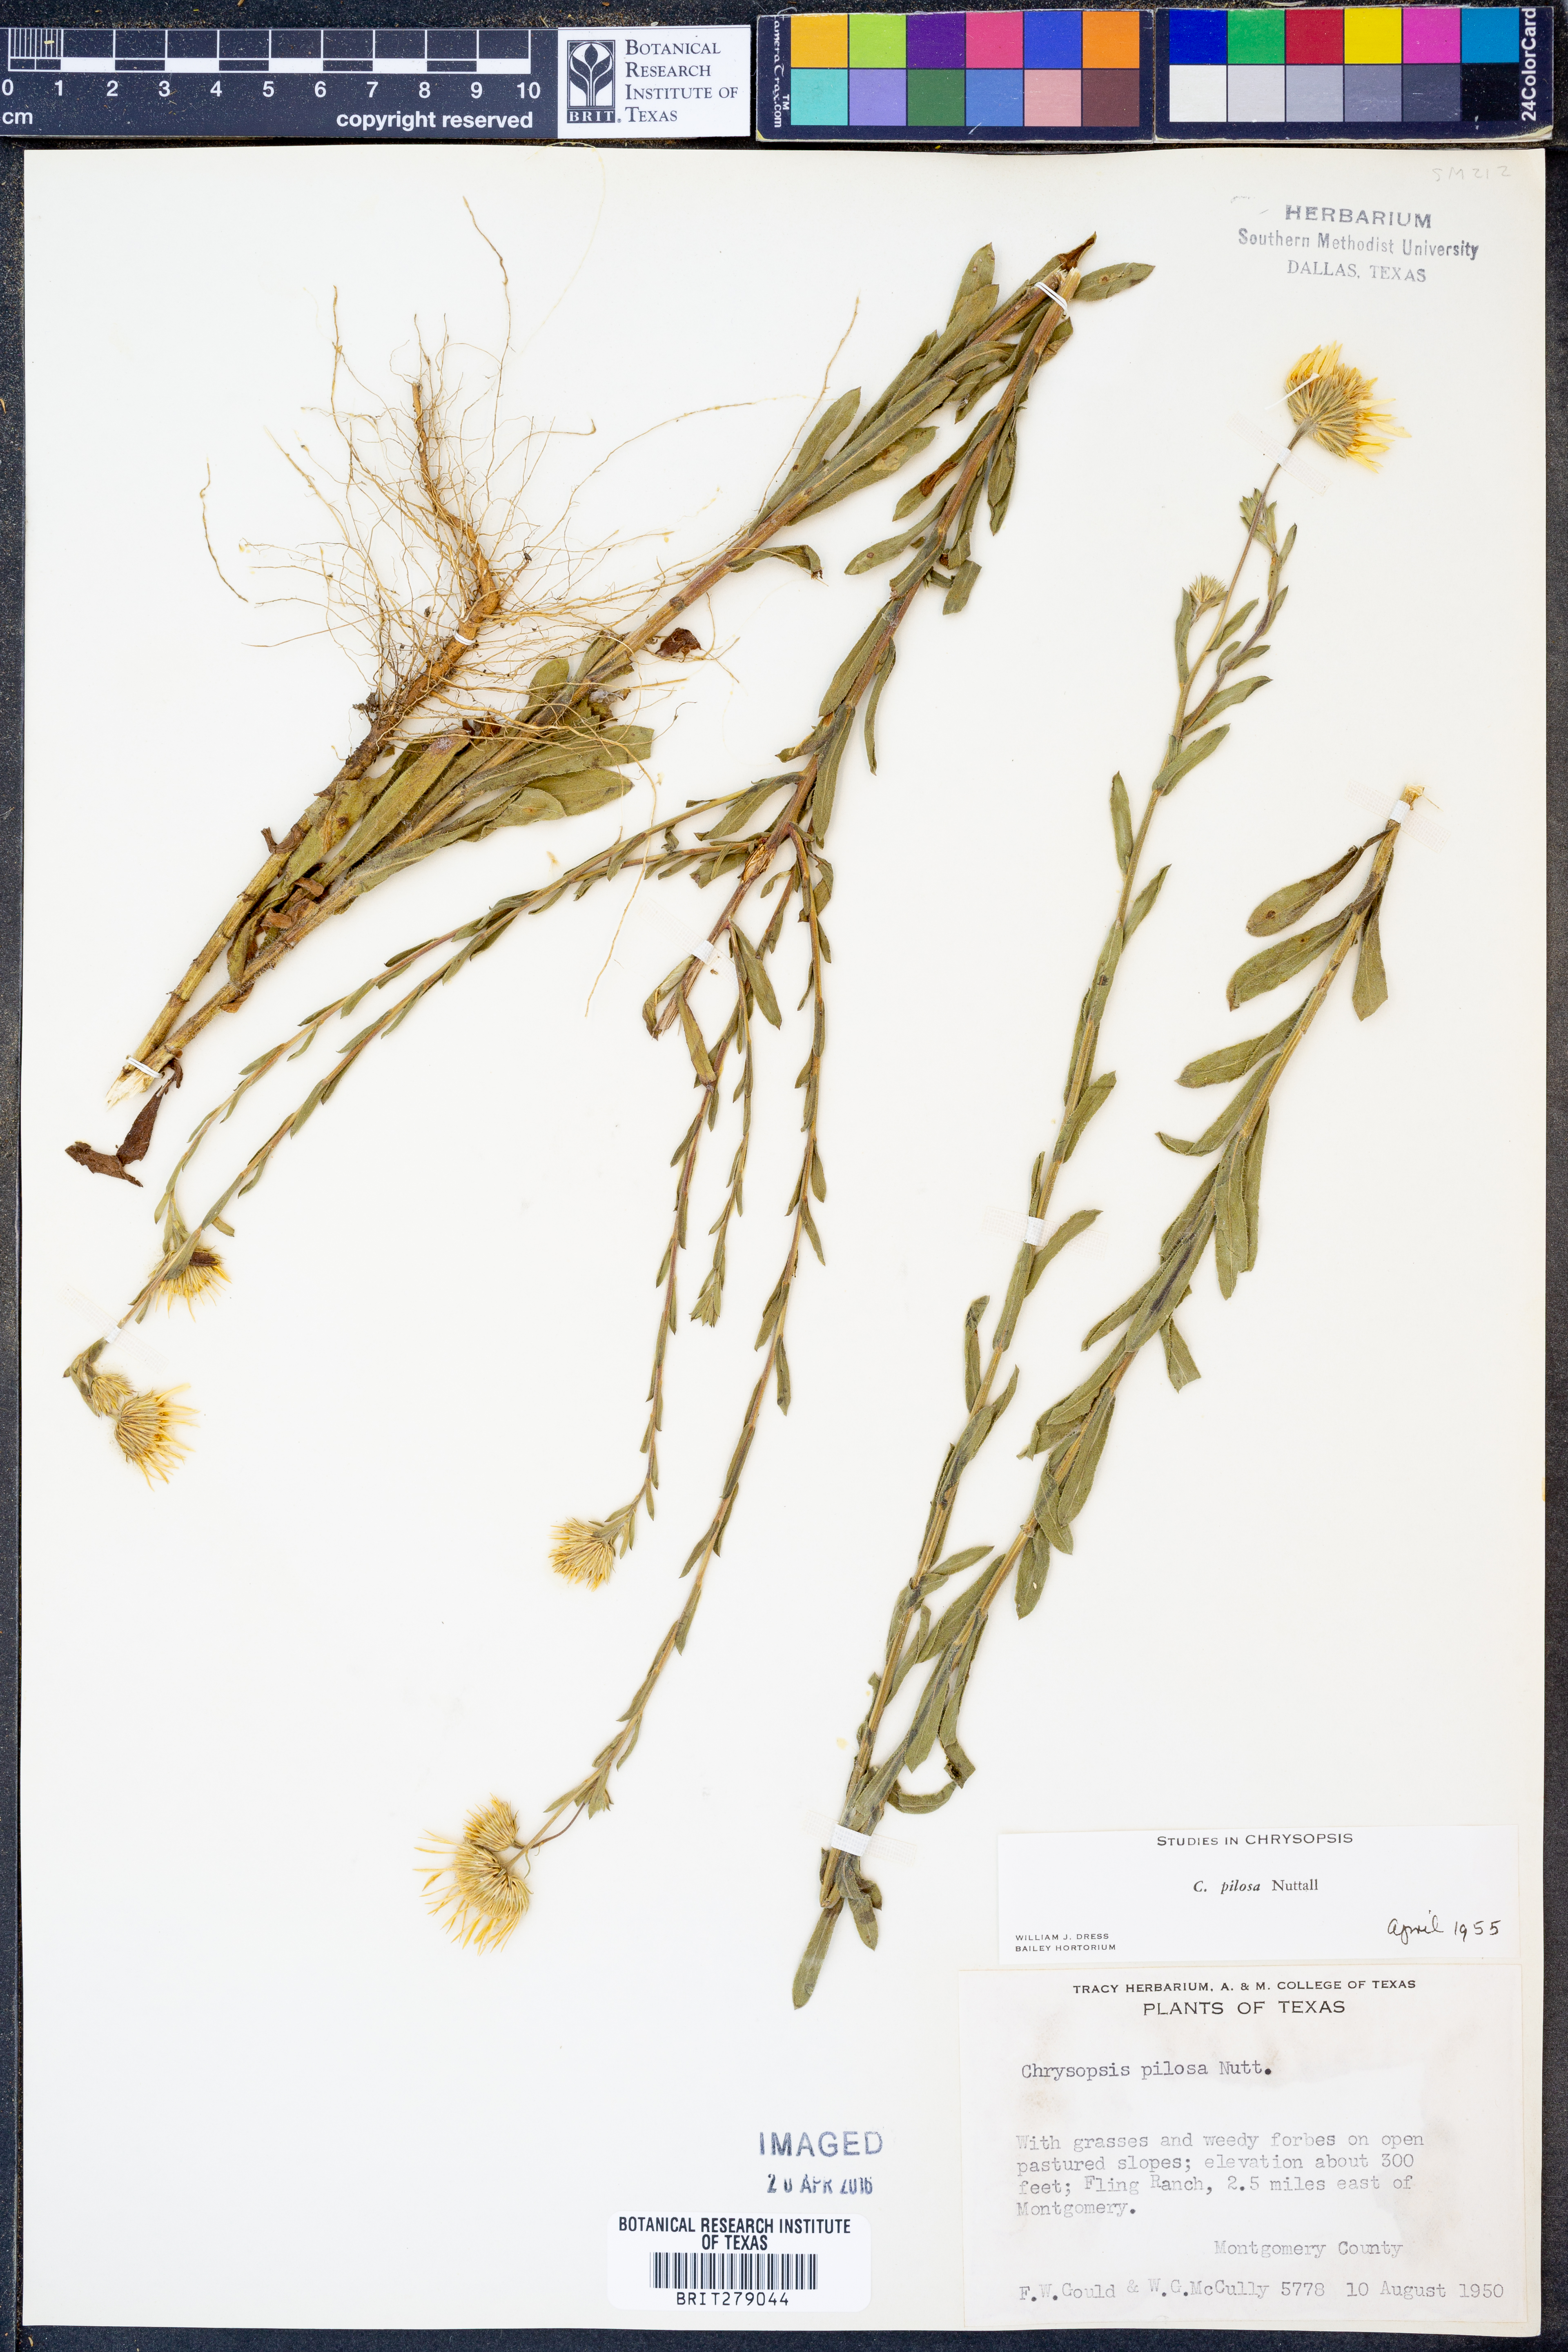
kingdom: Plantae
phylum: Tracheophyta
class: Magnoliopsida
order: Asterales
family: Asteraceae
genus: Bradburia
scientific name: Bradburia pilosa
